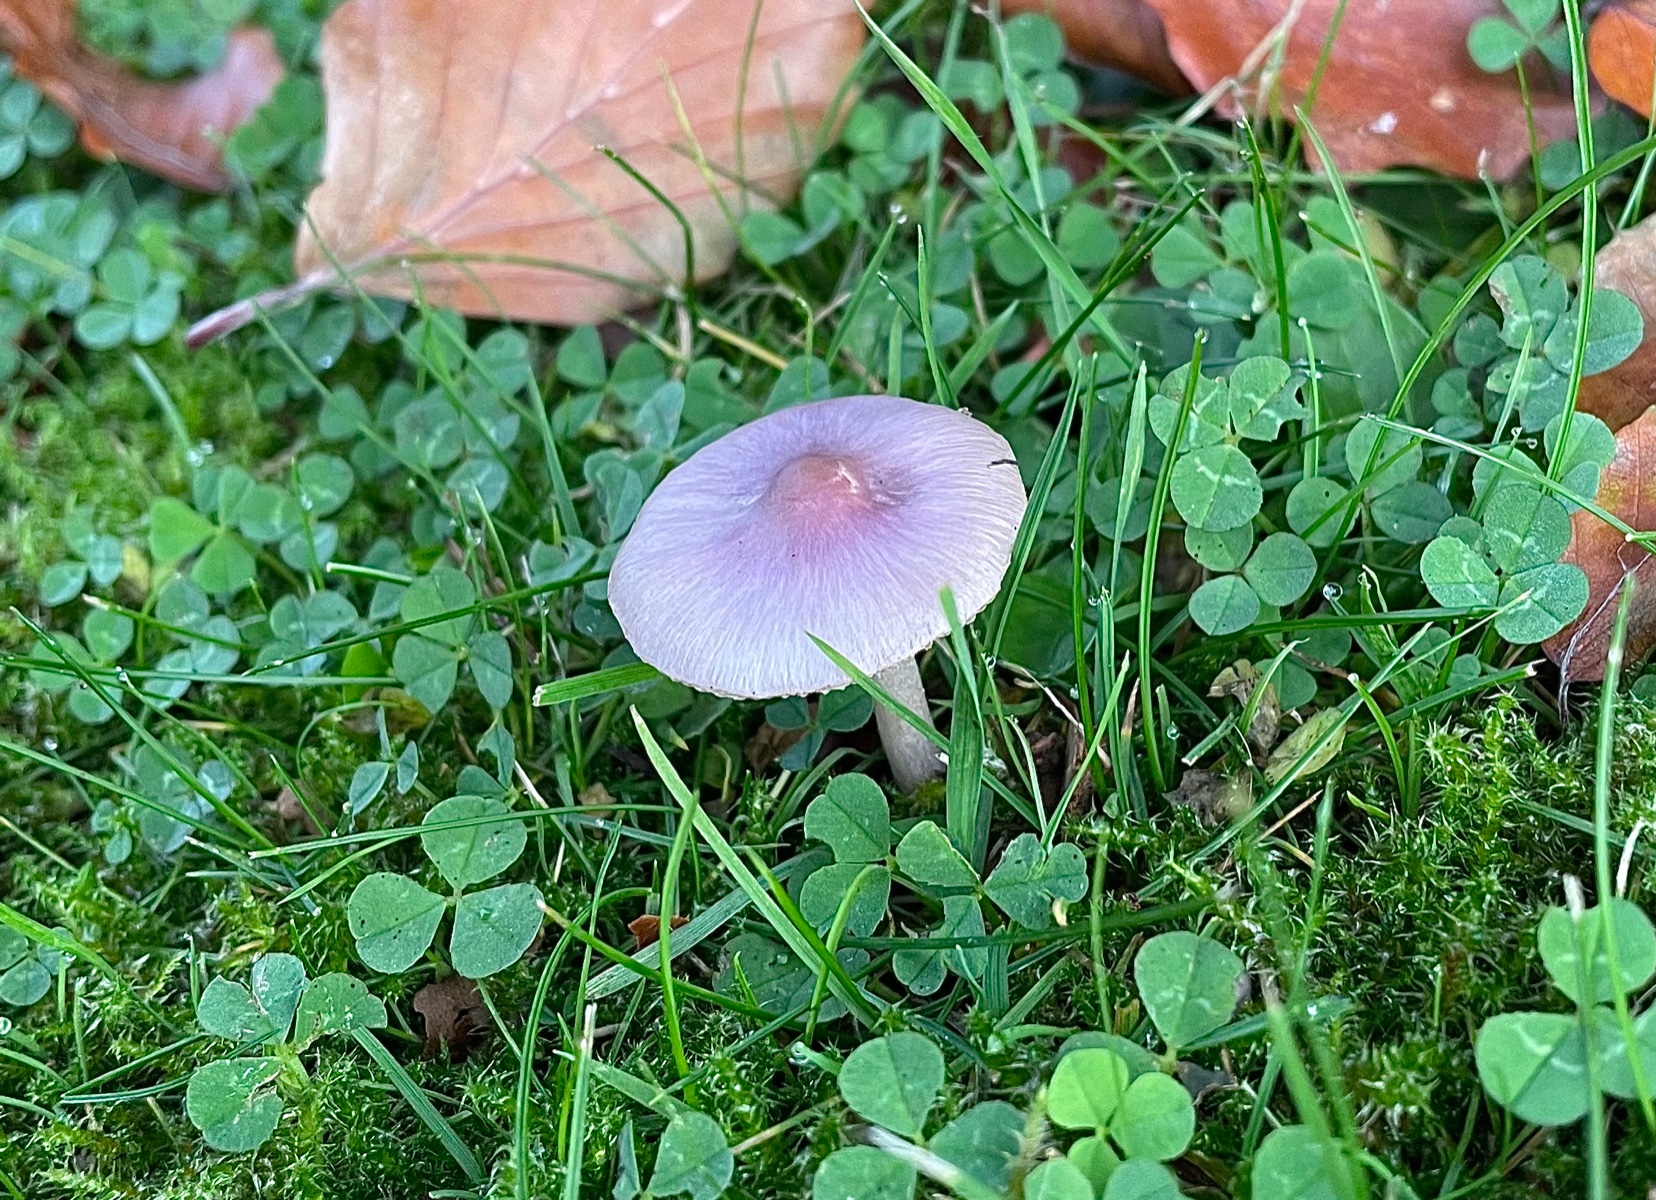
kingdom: Fungi
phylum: Basidiomycota
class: Agaricomycetes
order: Agaricales
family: Inocybaceae
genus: Inocybe
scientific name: Inocybe geophylla
